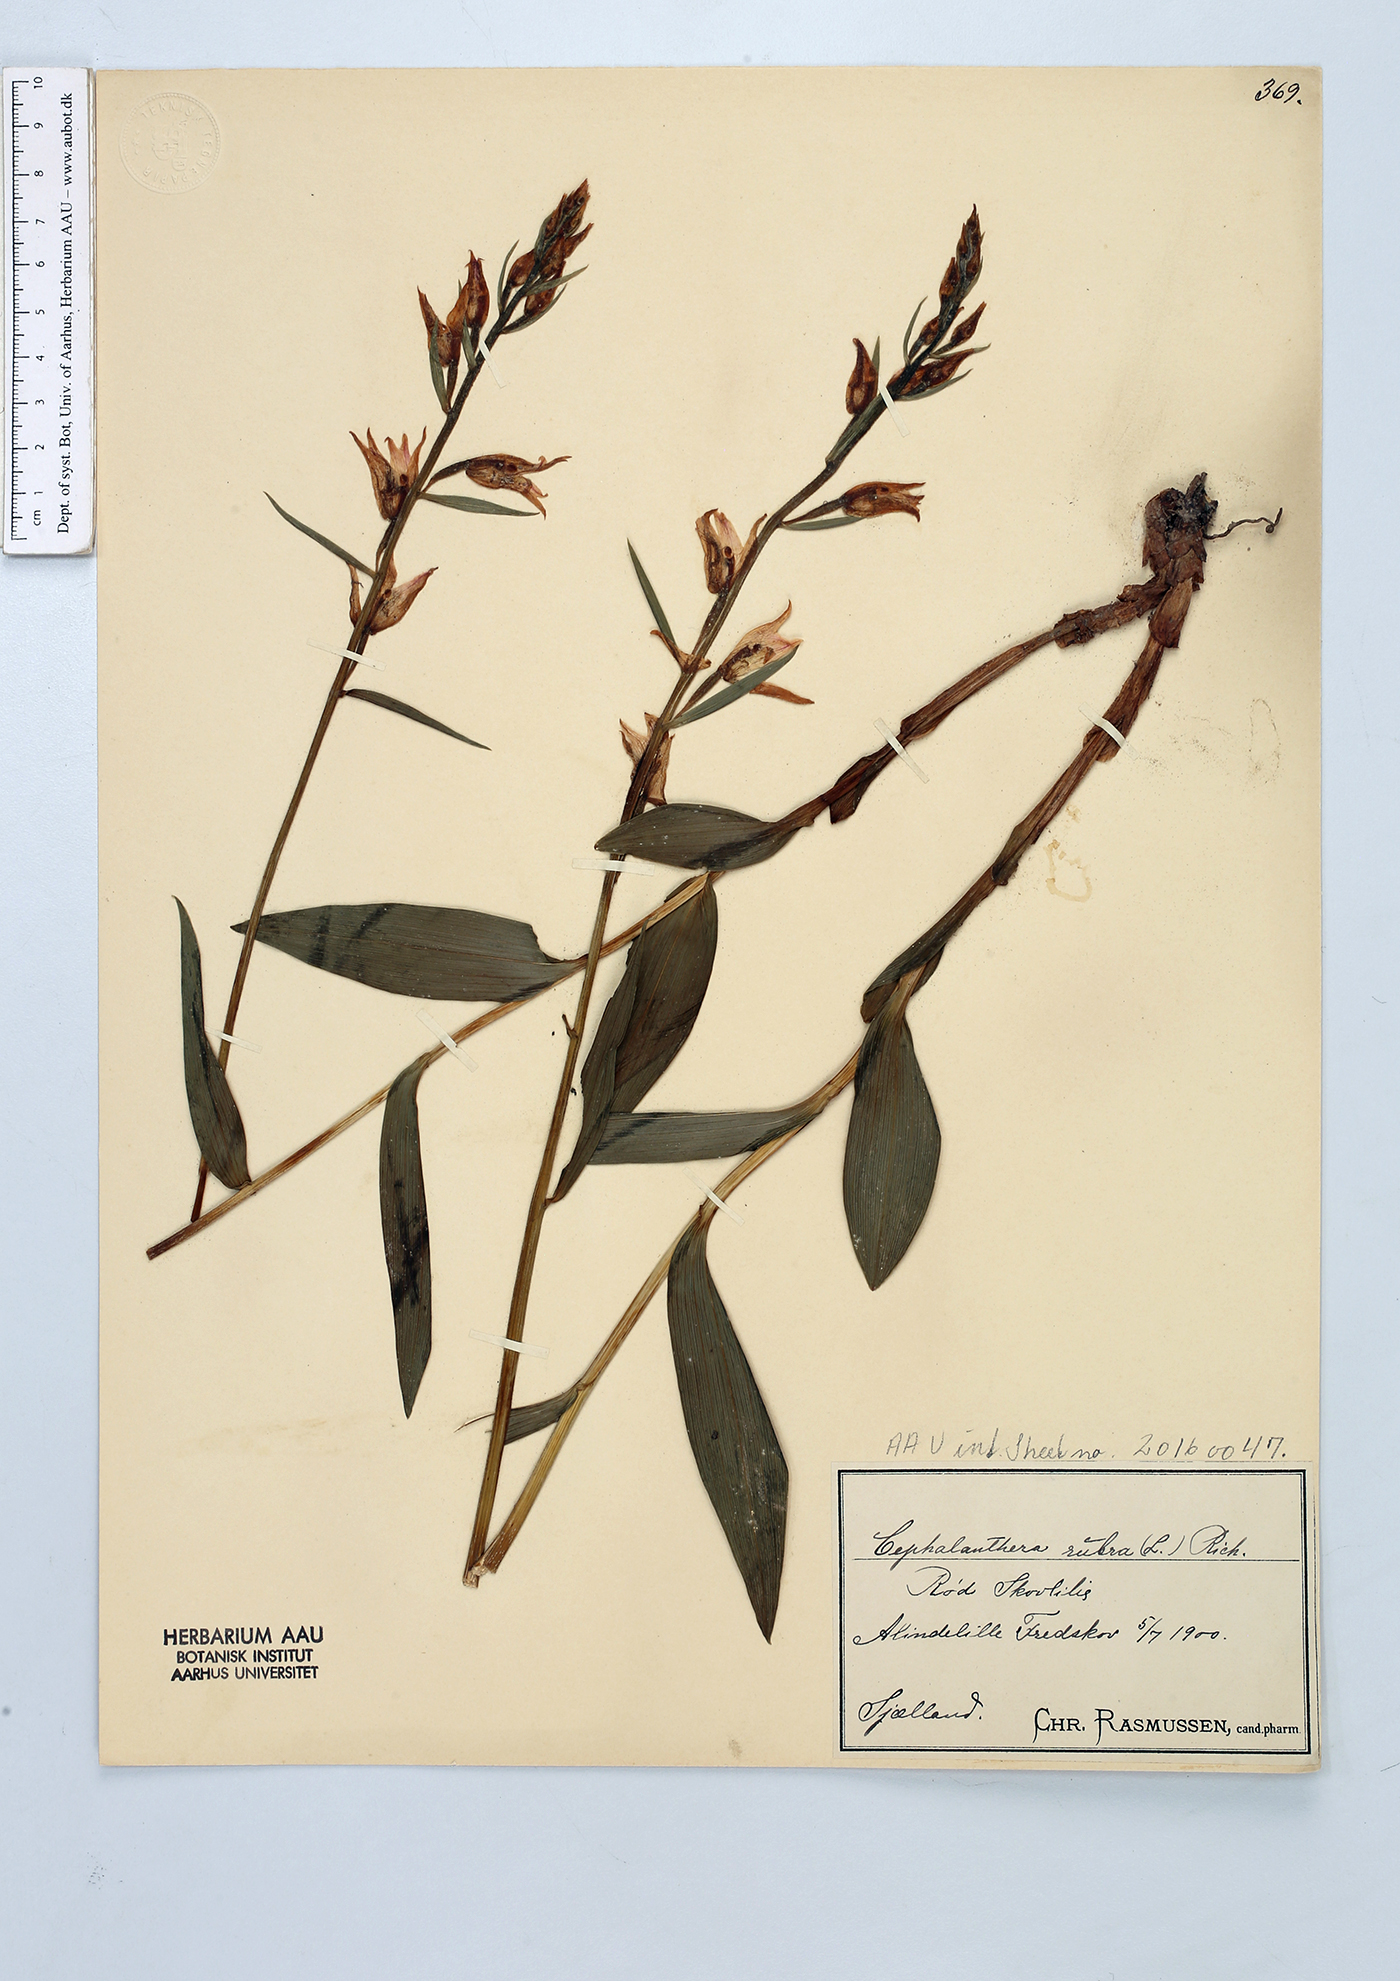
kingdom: Plantae
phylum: Tracheophyta
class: Liliopsida
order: Asparagales
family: Orchidaceae
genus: Cephalanthera
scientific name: Cephalanthera rubra
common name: Red helleborine
